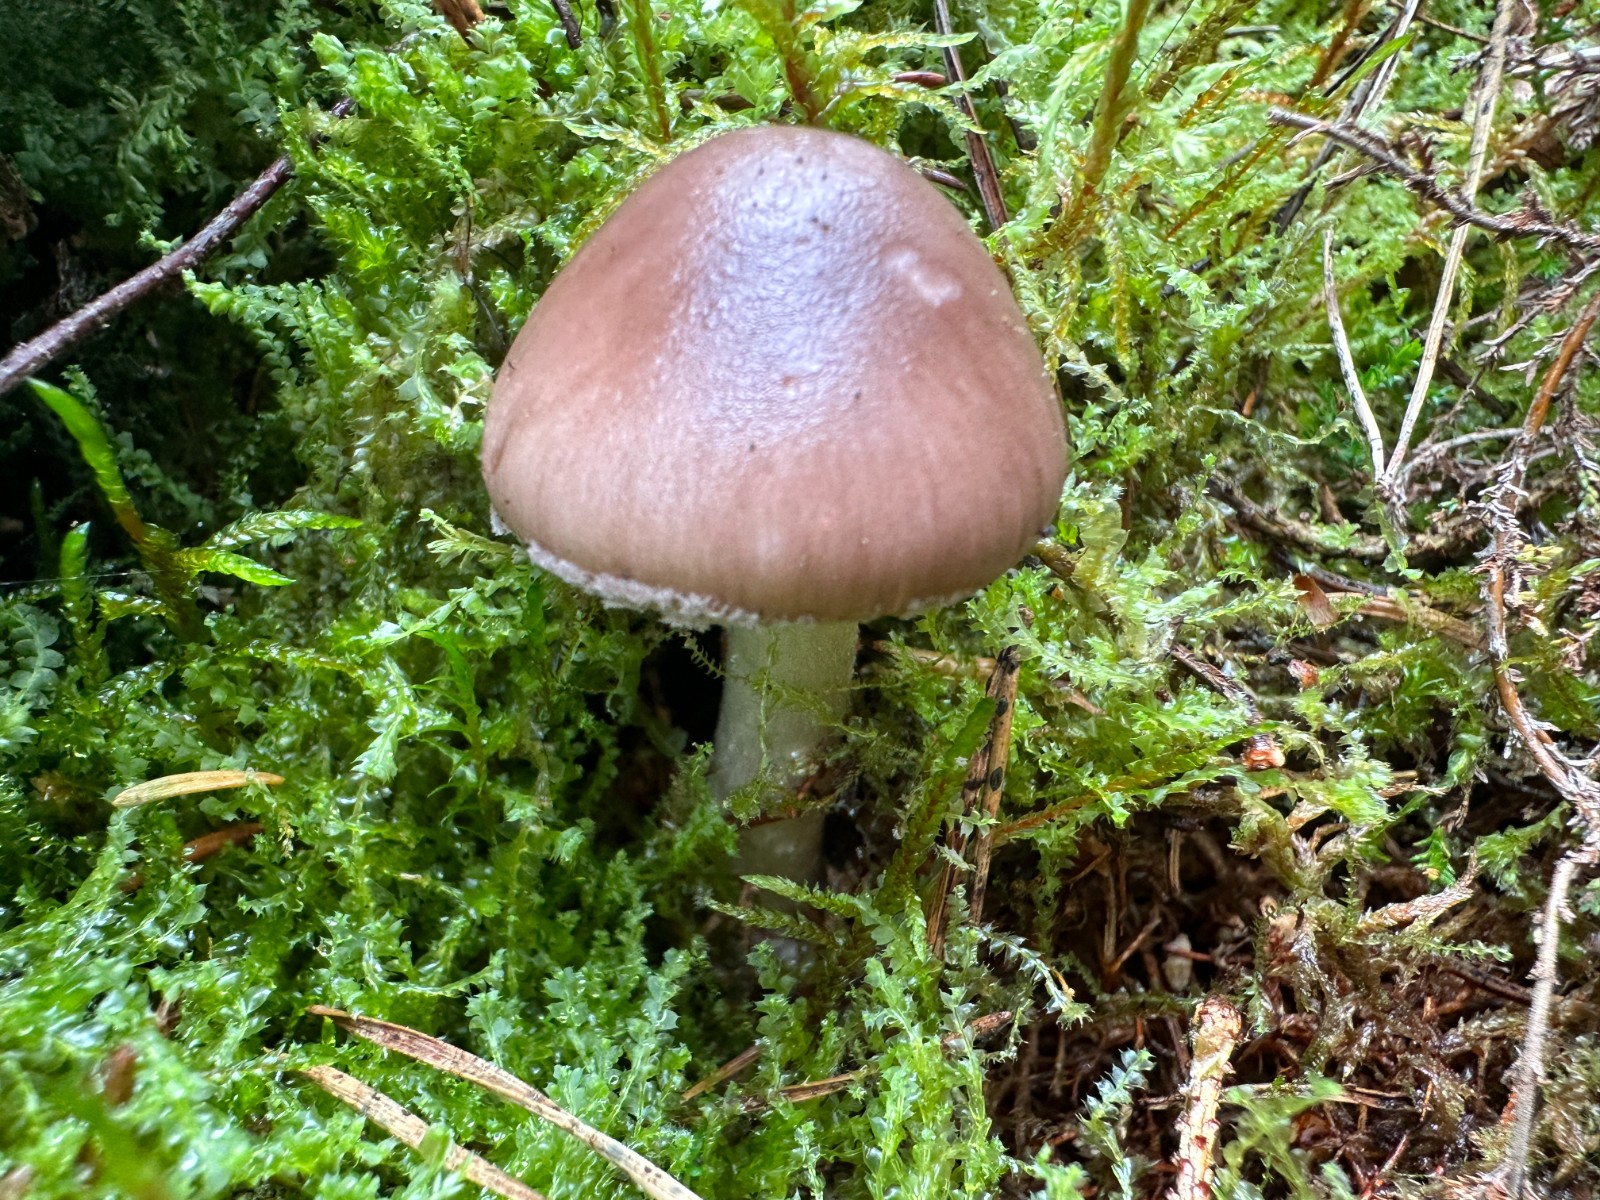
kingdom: Fungi
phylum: Basidiomycota
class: Agaricomycetes
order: Agaricales
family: Amanitaceae
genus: Amanita
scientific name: Amanita porphyria
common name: porfyr-fluesvamp
